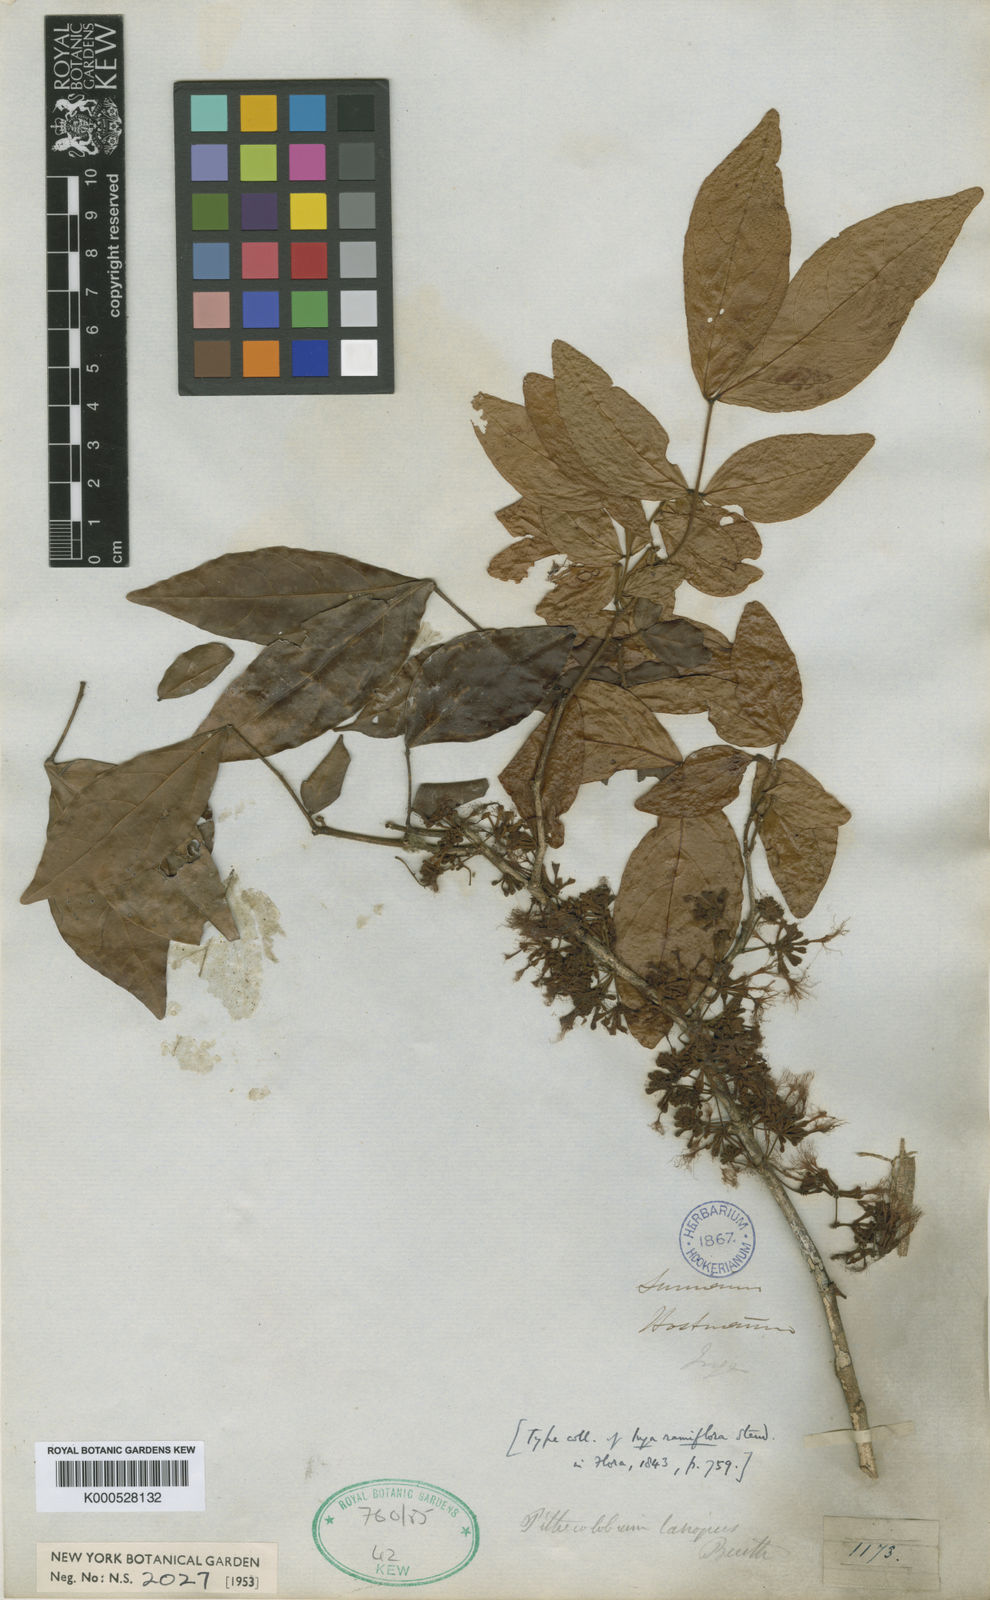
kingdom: Plantae
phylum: Tracheophyta
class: Magnoliopsida
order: Fabales
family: Fabaceae
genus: Zygia
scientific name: Zygia cataractae
